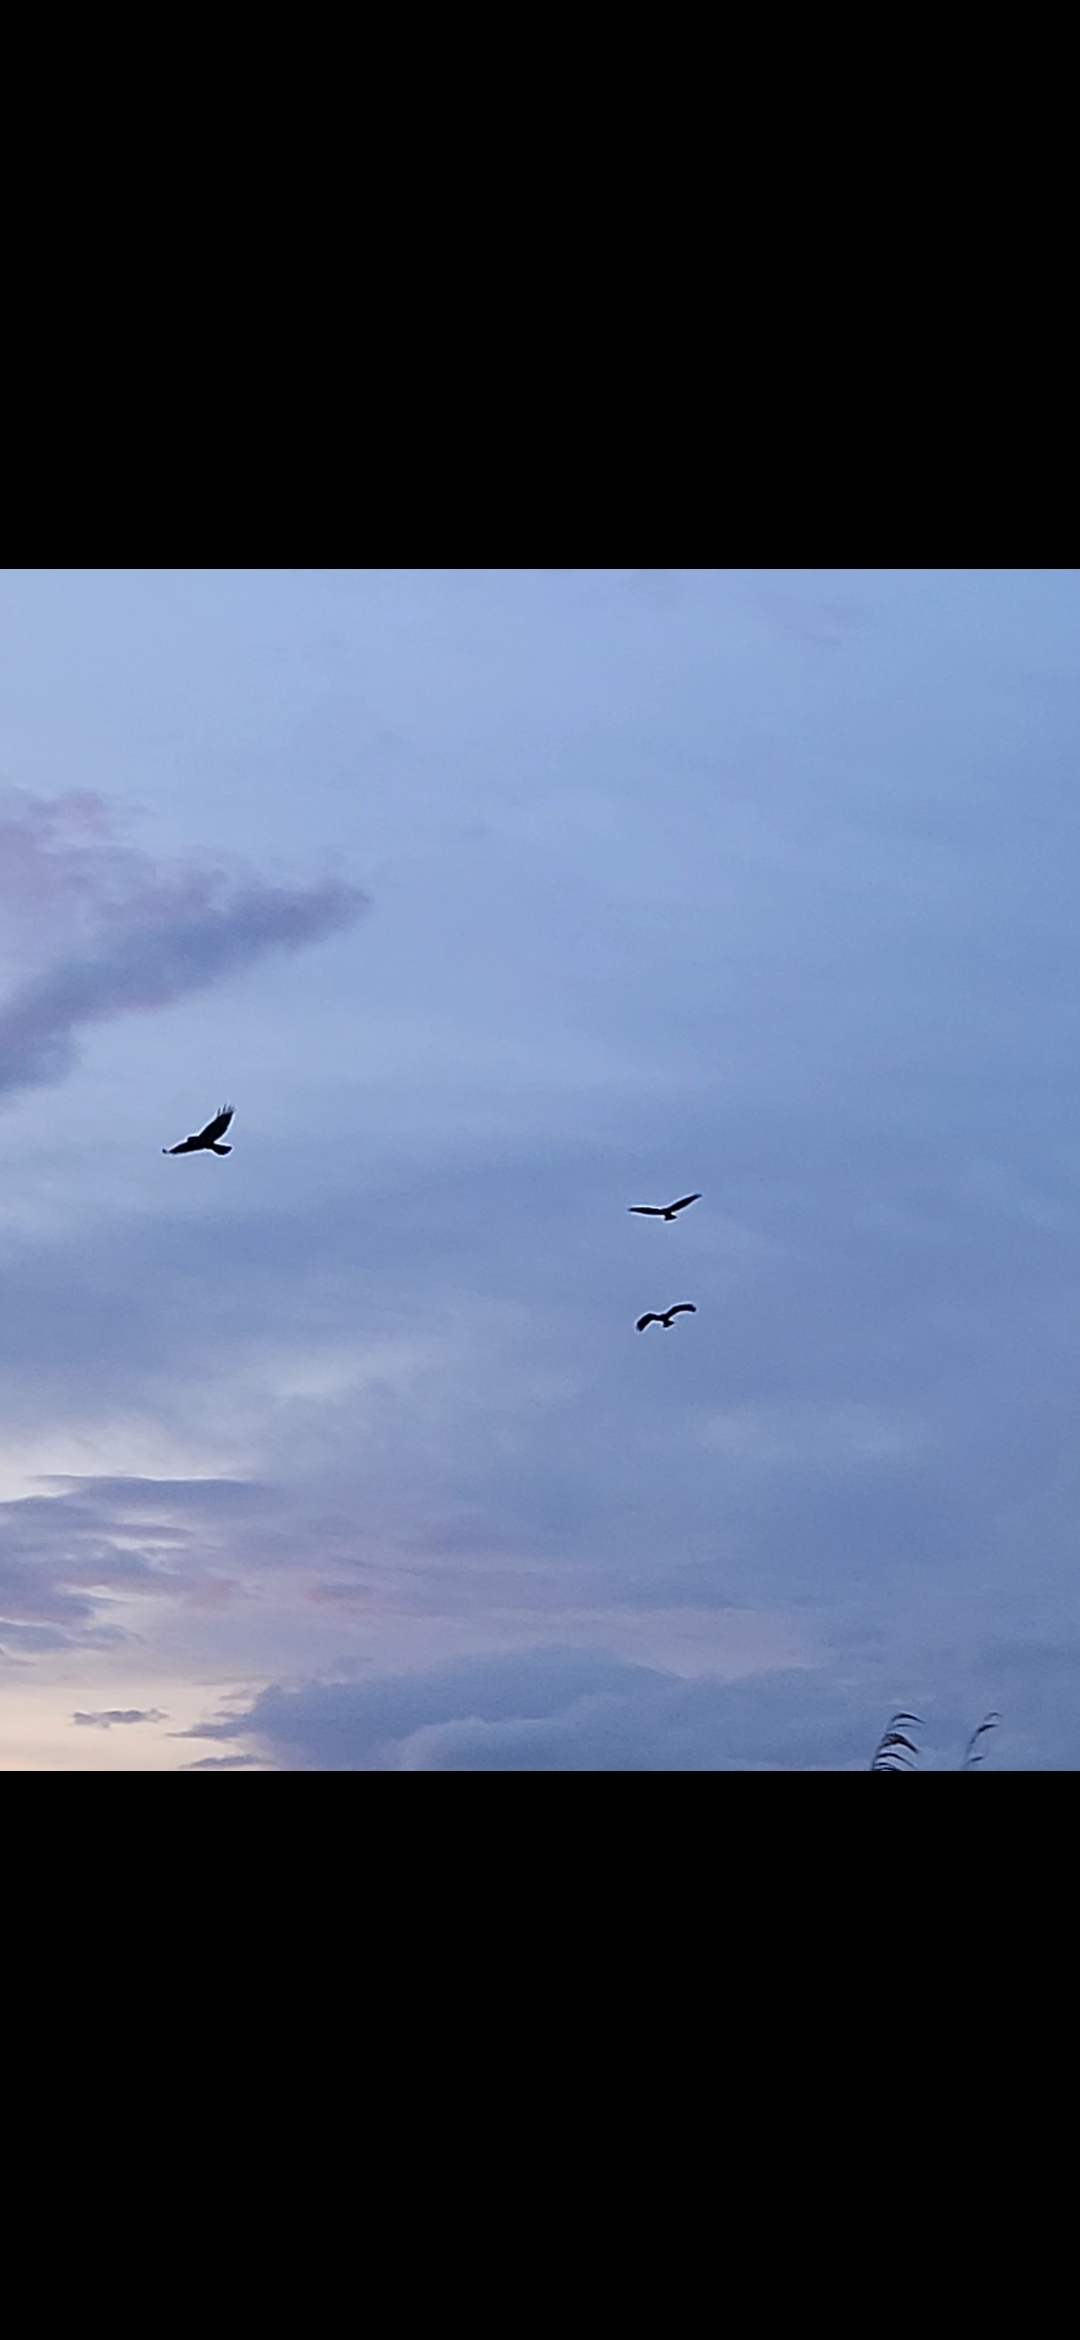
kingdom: Animalia
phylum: Chordata
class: Aves
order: Accipitriformes
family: Accipitridae
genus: Buteo
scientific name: Buteo buteo
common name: Musvåge
